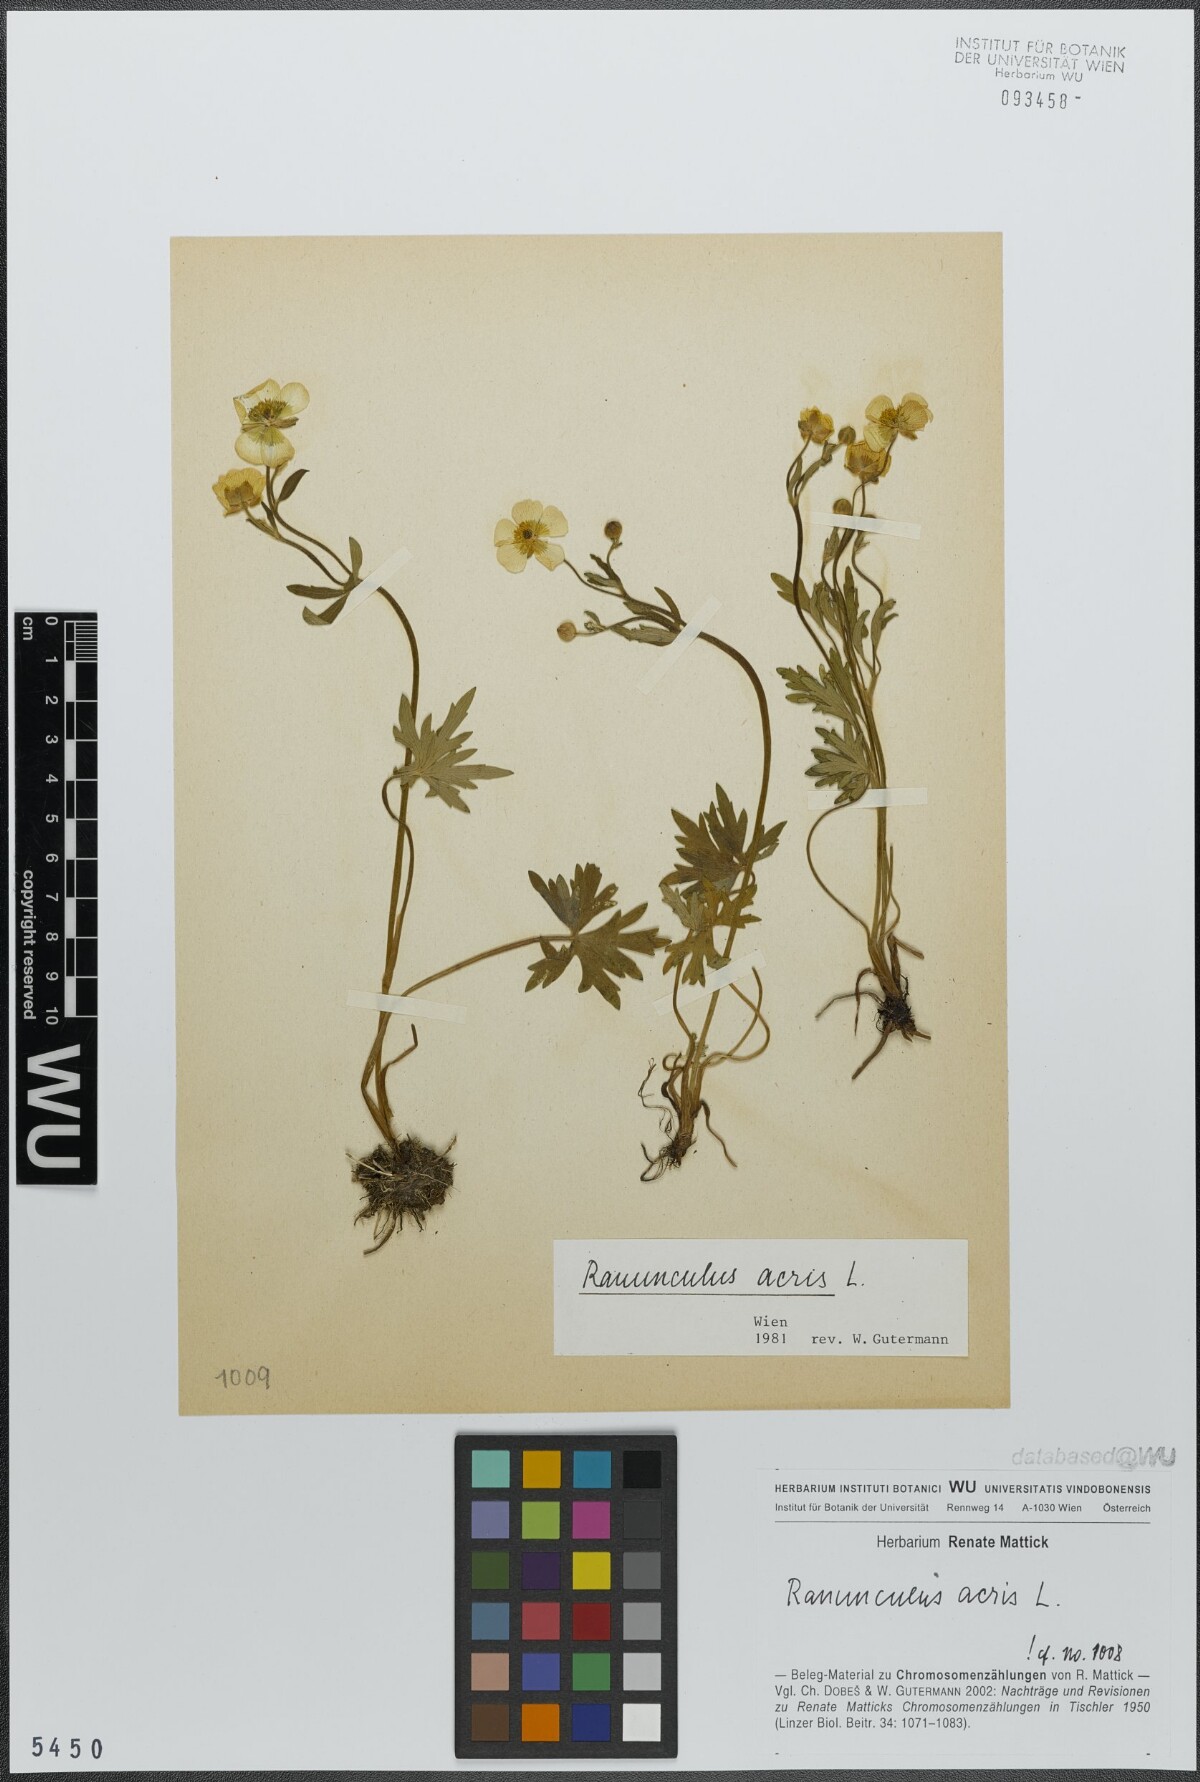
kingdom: Plantae
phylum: Tracheophyta
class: Magnoliopsida
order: Ranunculales
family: Ranunculaceae
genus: Ranunculus
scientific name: Ranunculus acris
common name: Meadow buttercup
